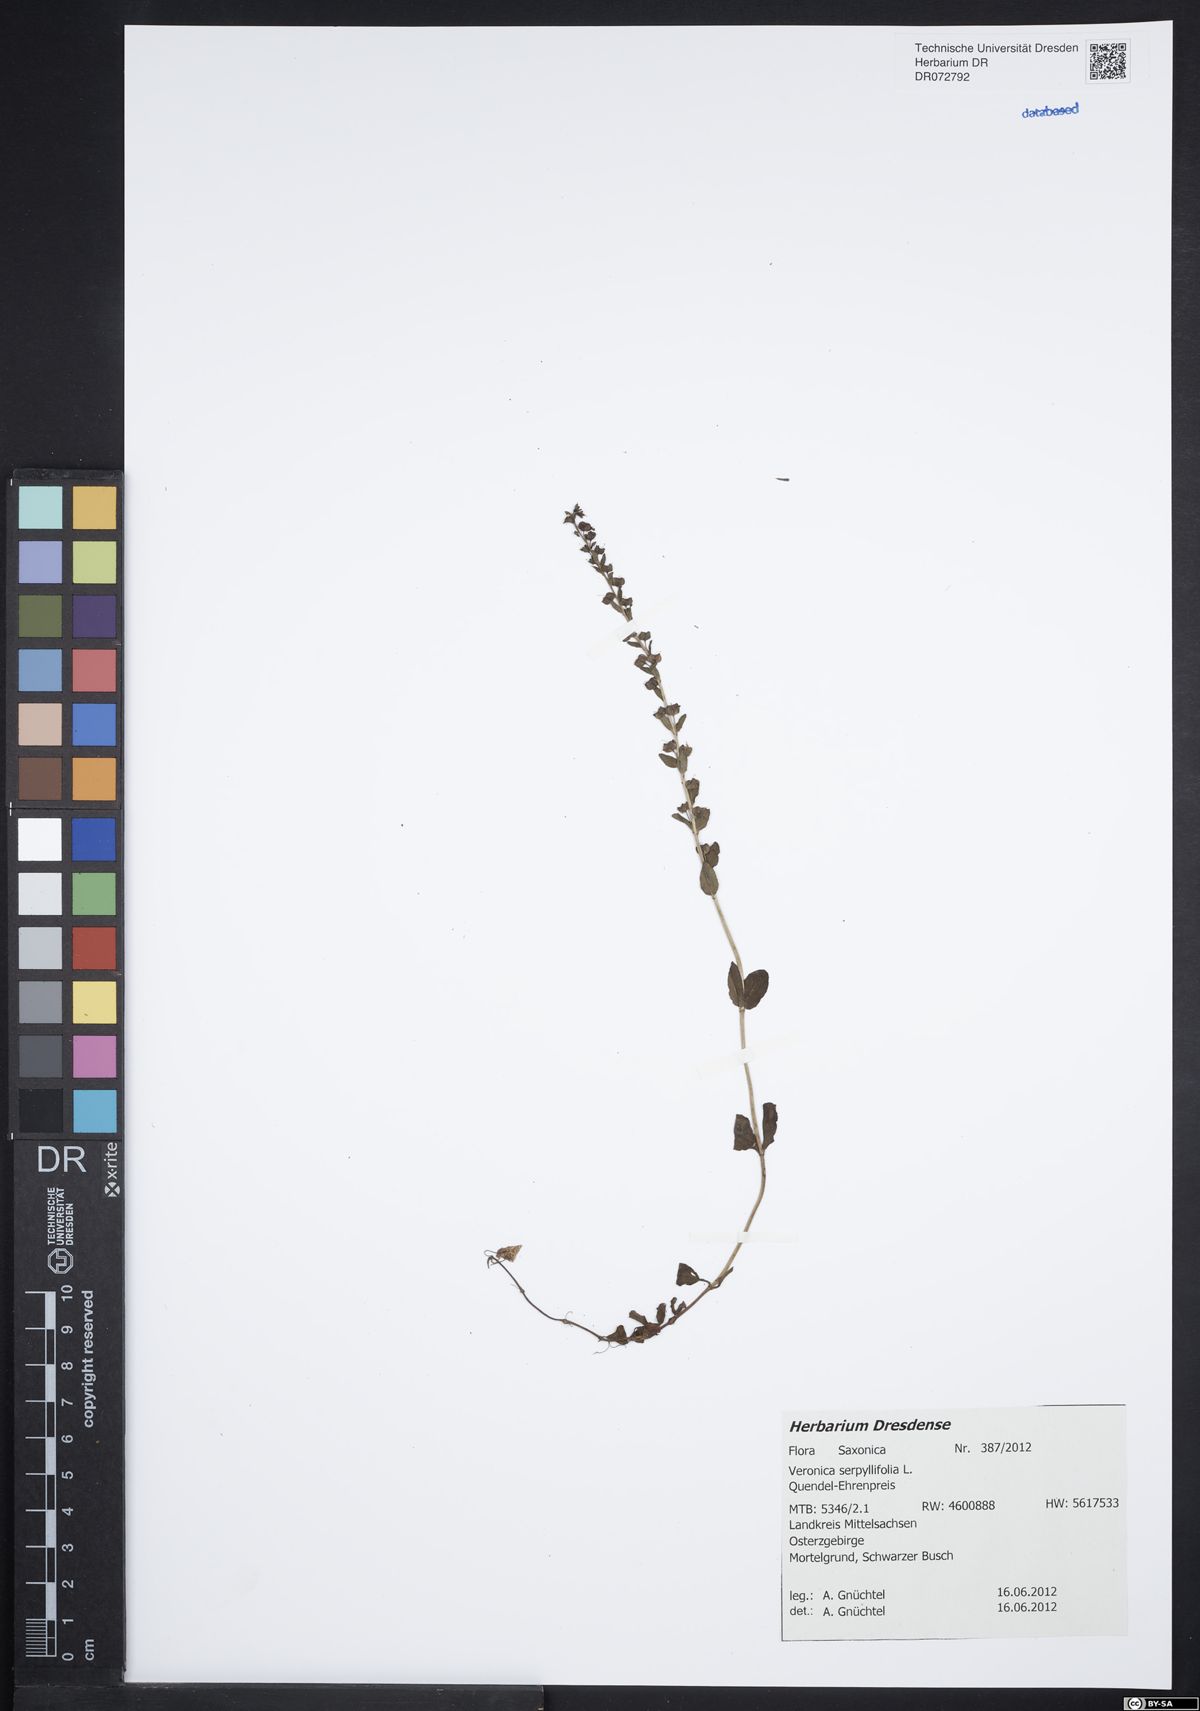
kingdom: Plantae
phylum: Tracheophyta
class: Magnoliopsida
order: Lamiales
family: Plantaginaceae
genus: Veronica
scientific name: Veronica serpyllifolia
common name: Thyme-leaved speedwell
